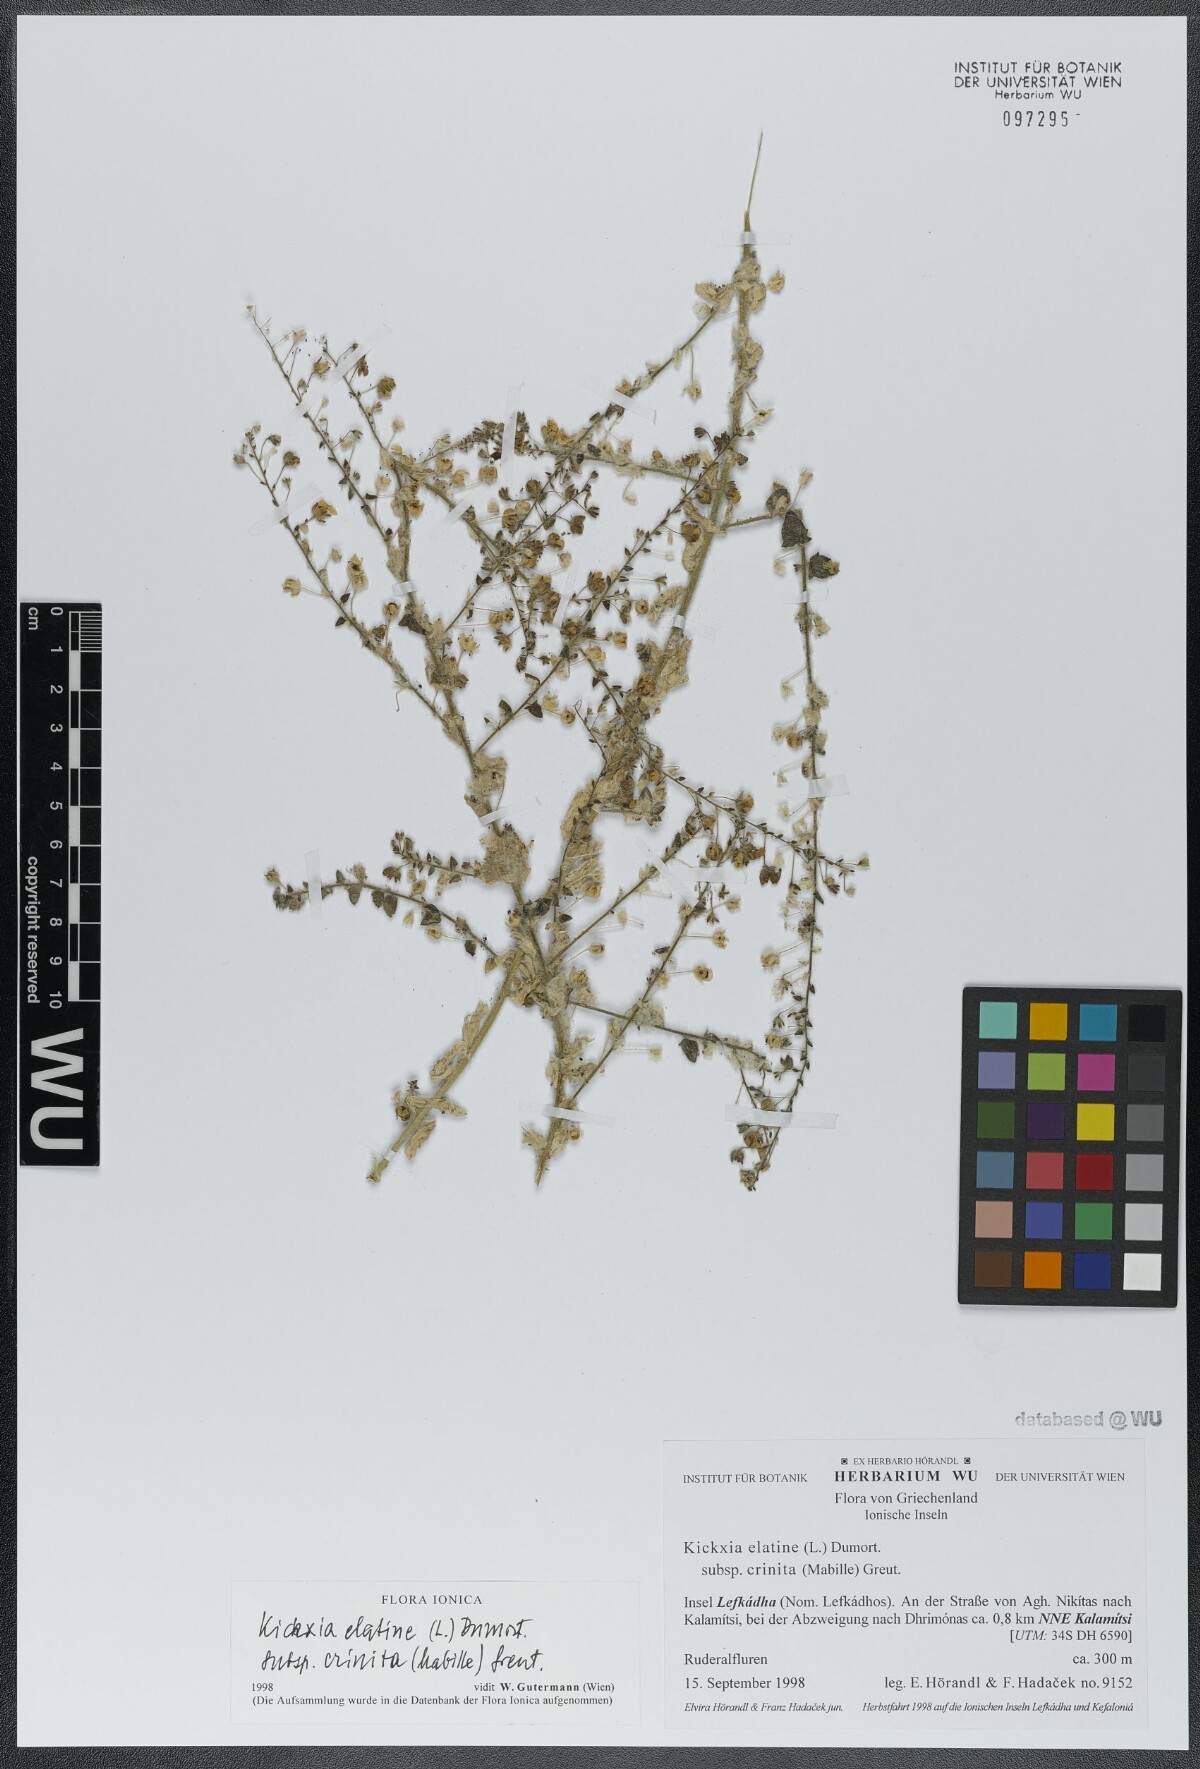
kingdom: Plantae
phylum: Tracheophyta
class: Magnoliopsida
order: Lamiales
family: Plantaginaceae
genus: Kickxia
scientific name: Kickxia elatine
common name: Sharp-leaved fluellen
